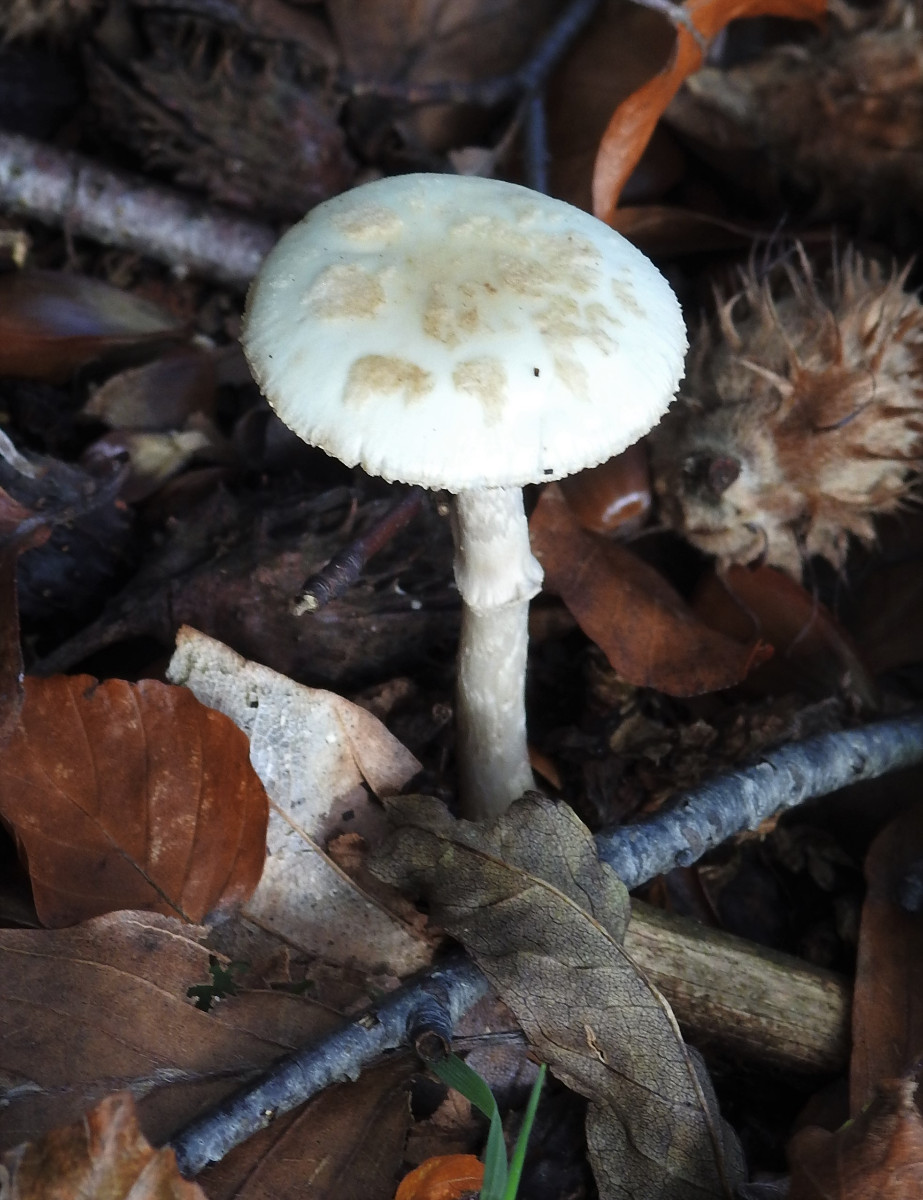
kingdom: Fungi
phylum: Basidiomycota
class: Agaricomycetes
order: Agaricales
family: Amanitaceae
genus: Amanita
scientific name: Amanita citrina
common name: False death-cap
